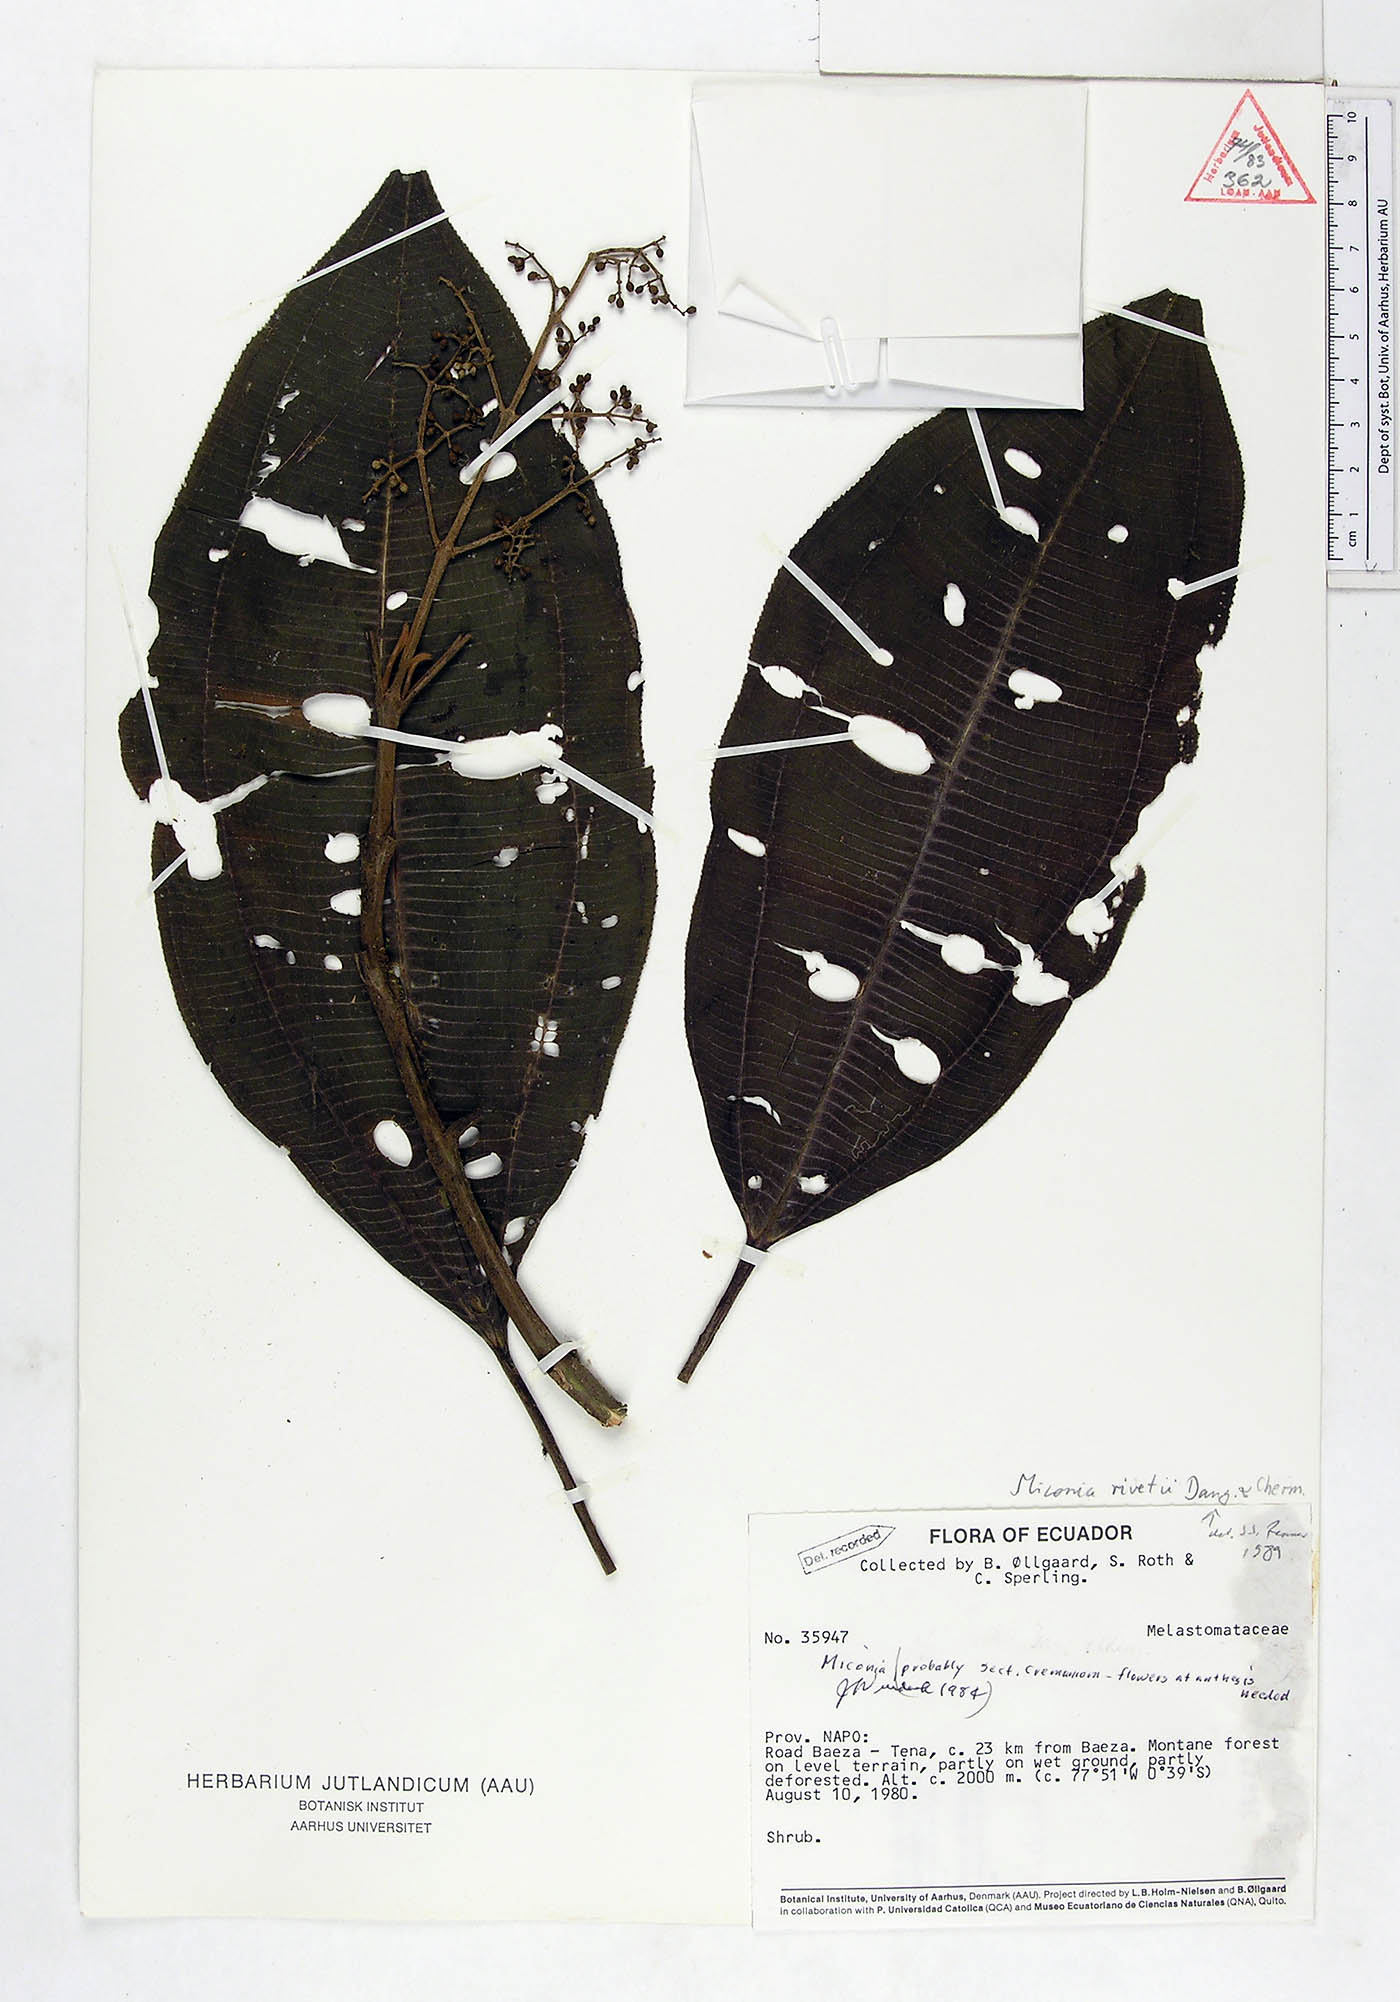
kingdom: Plantae
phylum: Tracheophyta
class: Magnoliopsida
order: Myrtales
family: Melastomataceae
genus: Miconia
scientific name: Miconia rivetii
